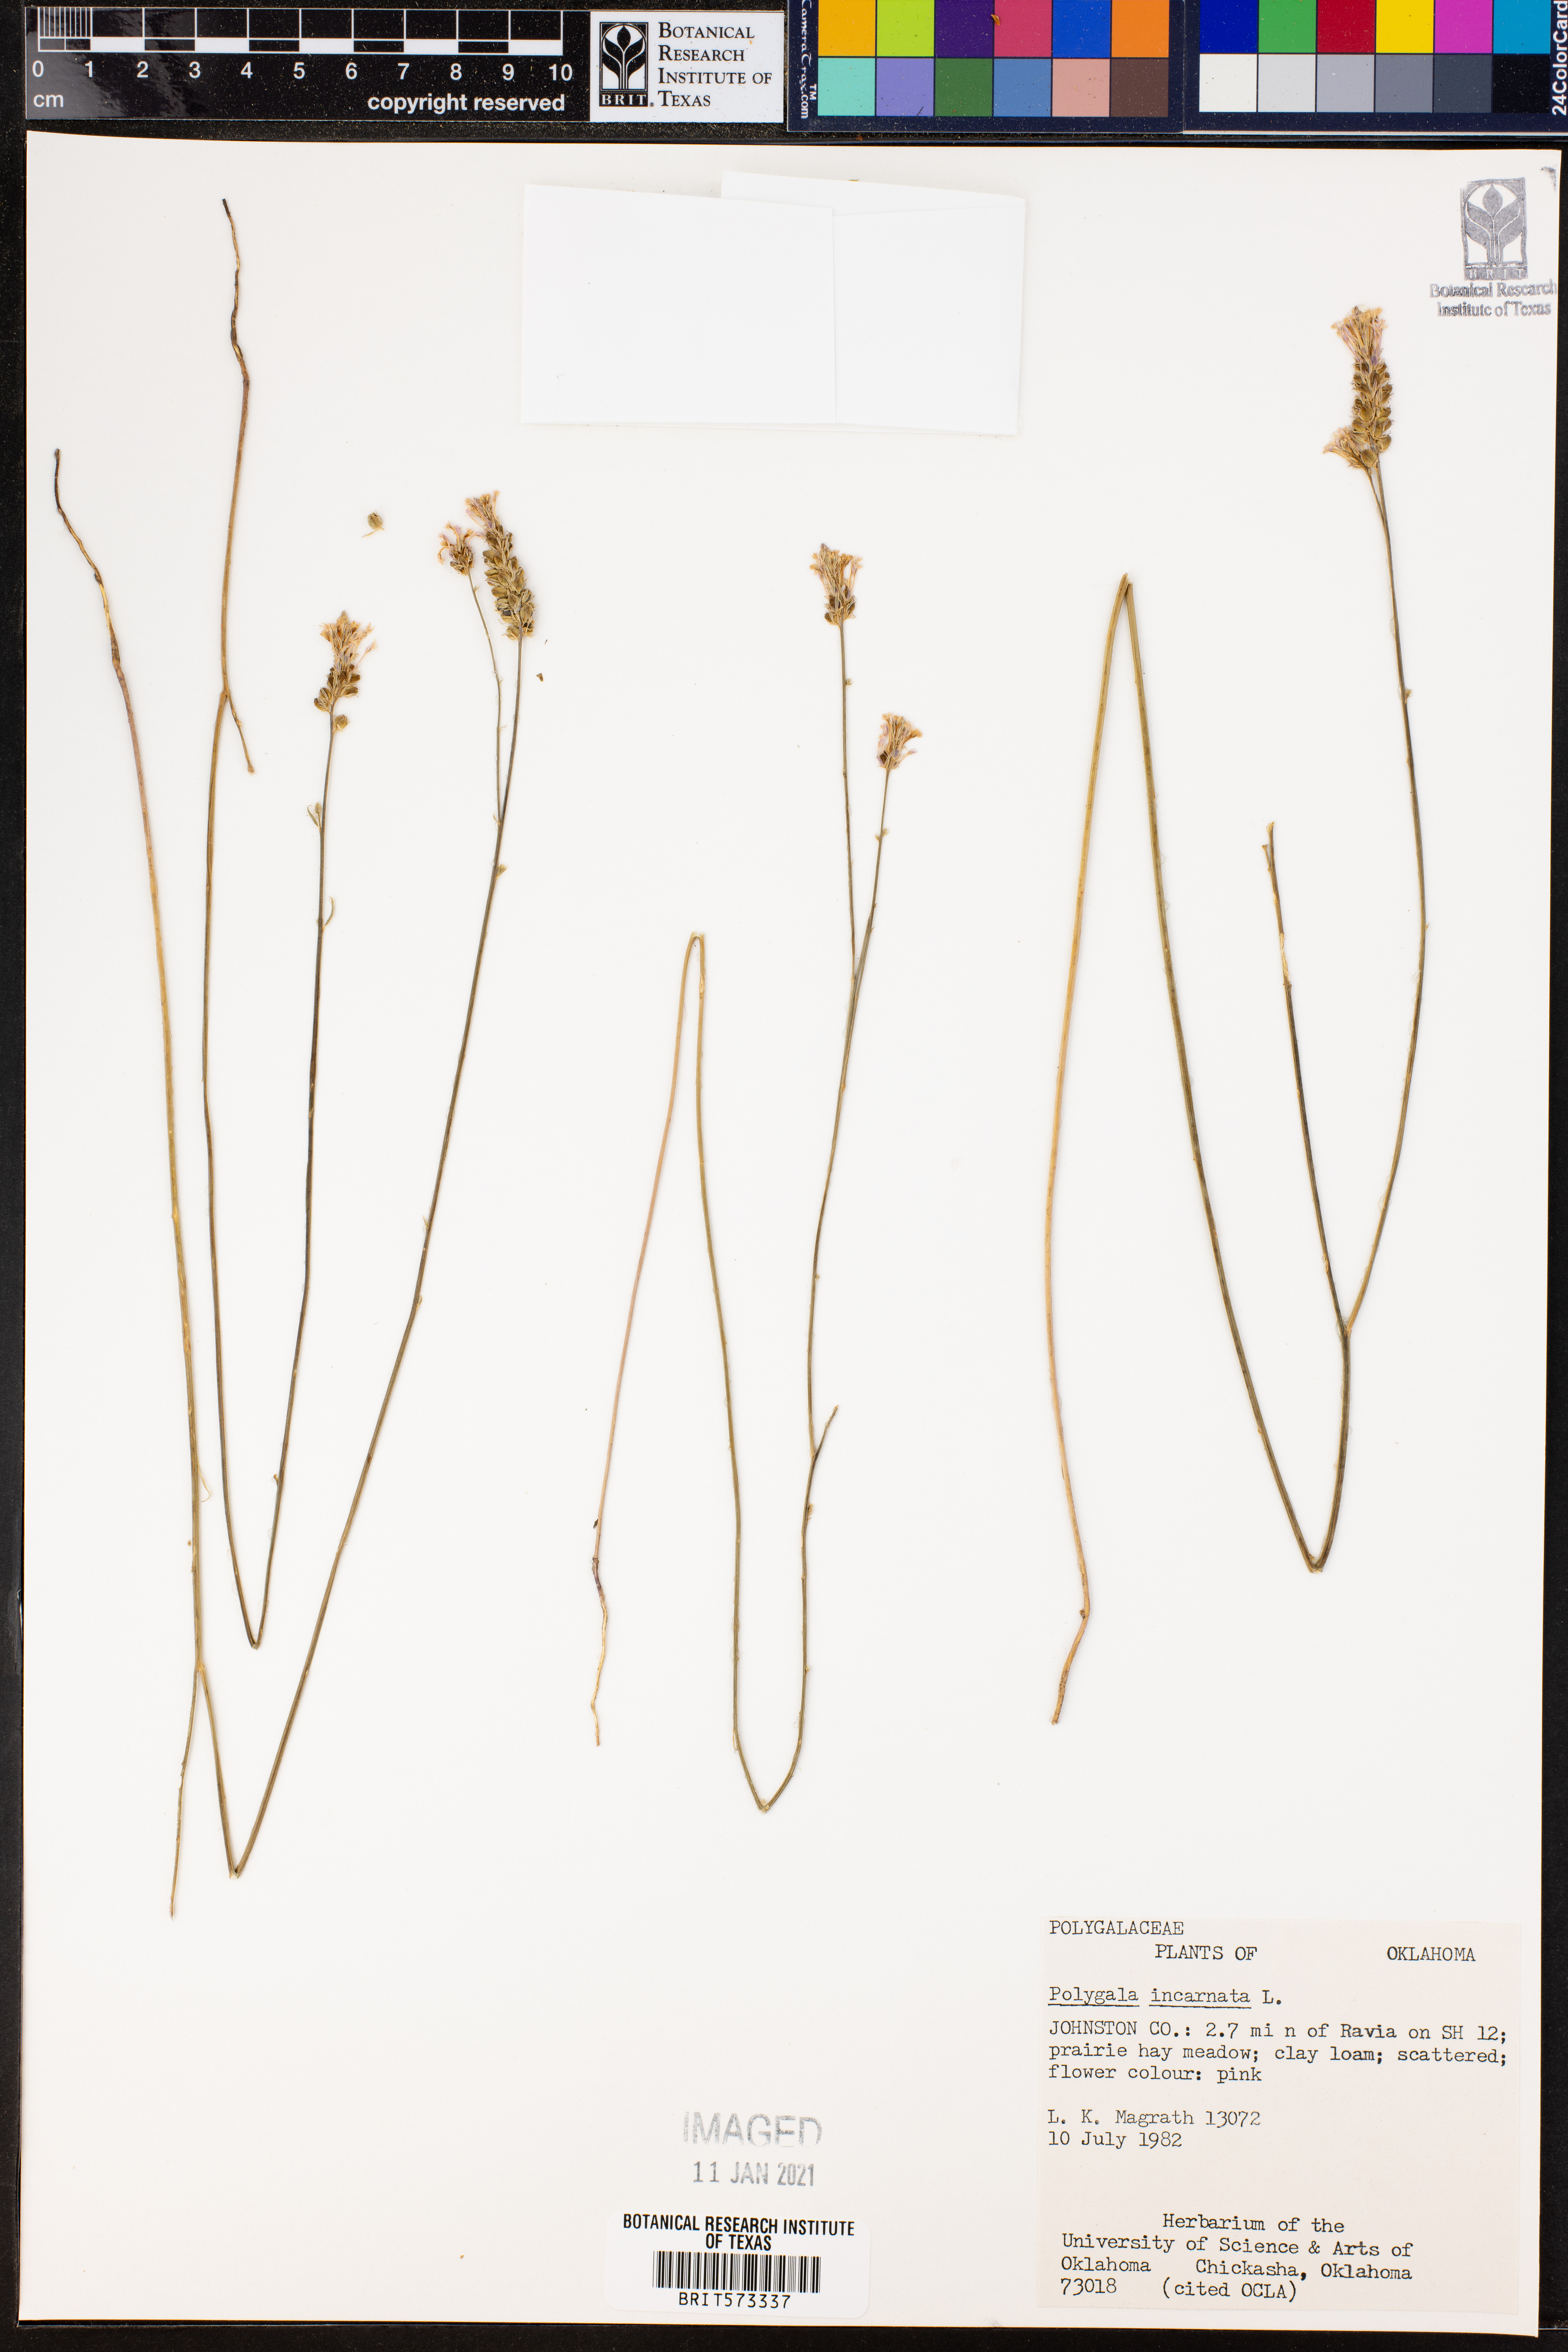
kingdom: Plantae
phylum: Tracheophyta
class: Magnoliopsida
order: Fabales
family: Polygalaceae
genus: Polygala
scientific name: Polygala incarnata
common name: Pink milkwort
